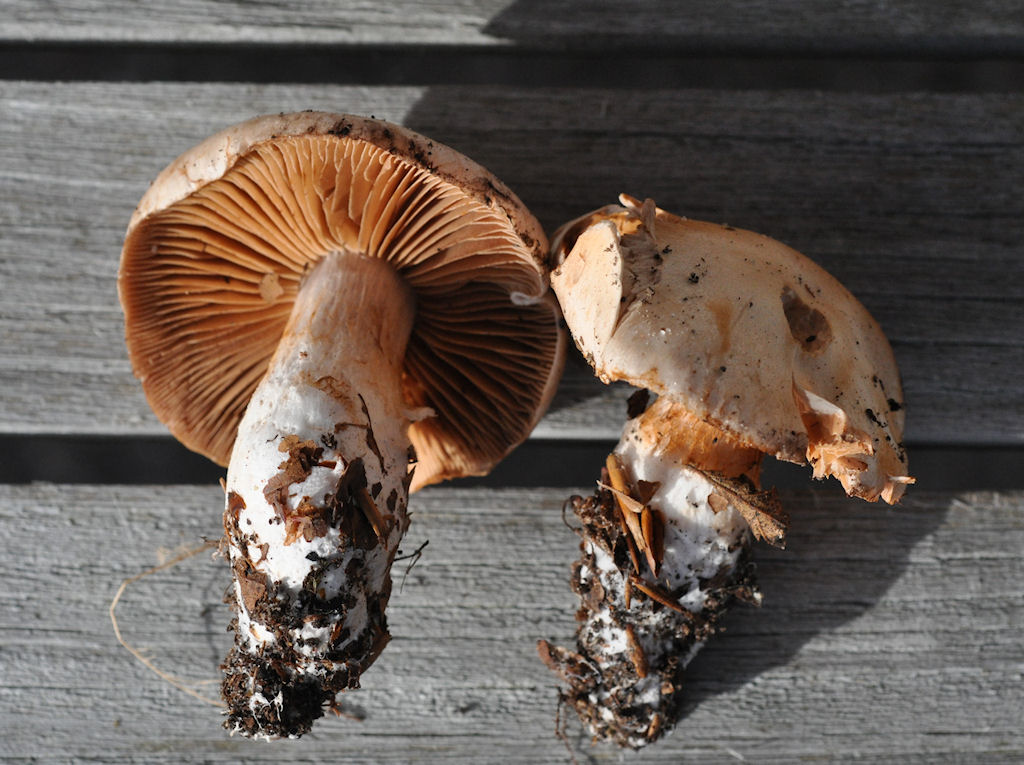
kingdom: Fungi
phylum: Basidiomycota
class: Agaricomycetes
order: Agaricales
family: Cortinariaceae
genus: Cortinarius
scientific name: Cortinarius turgidus
